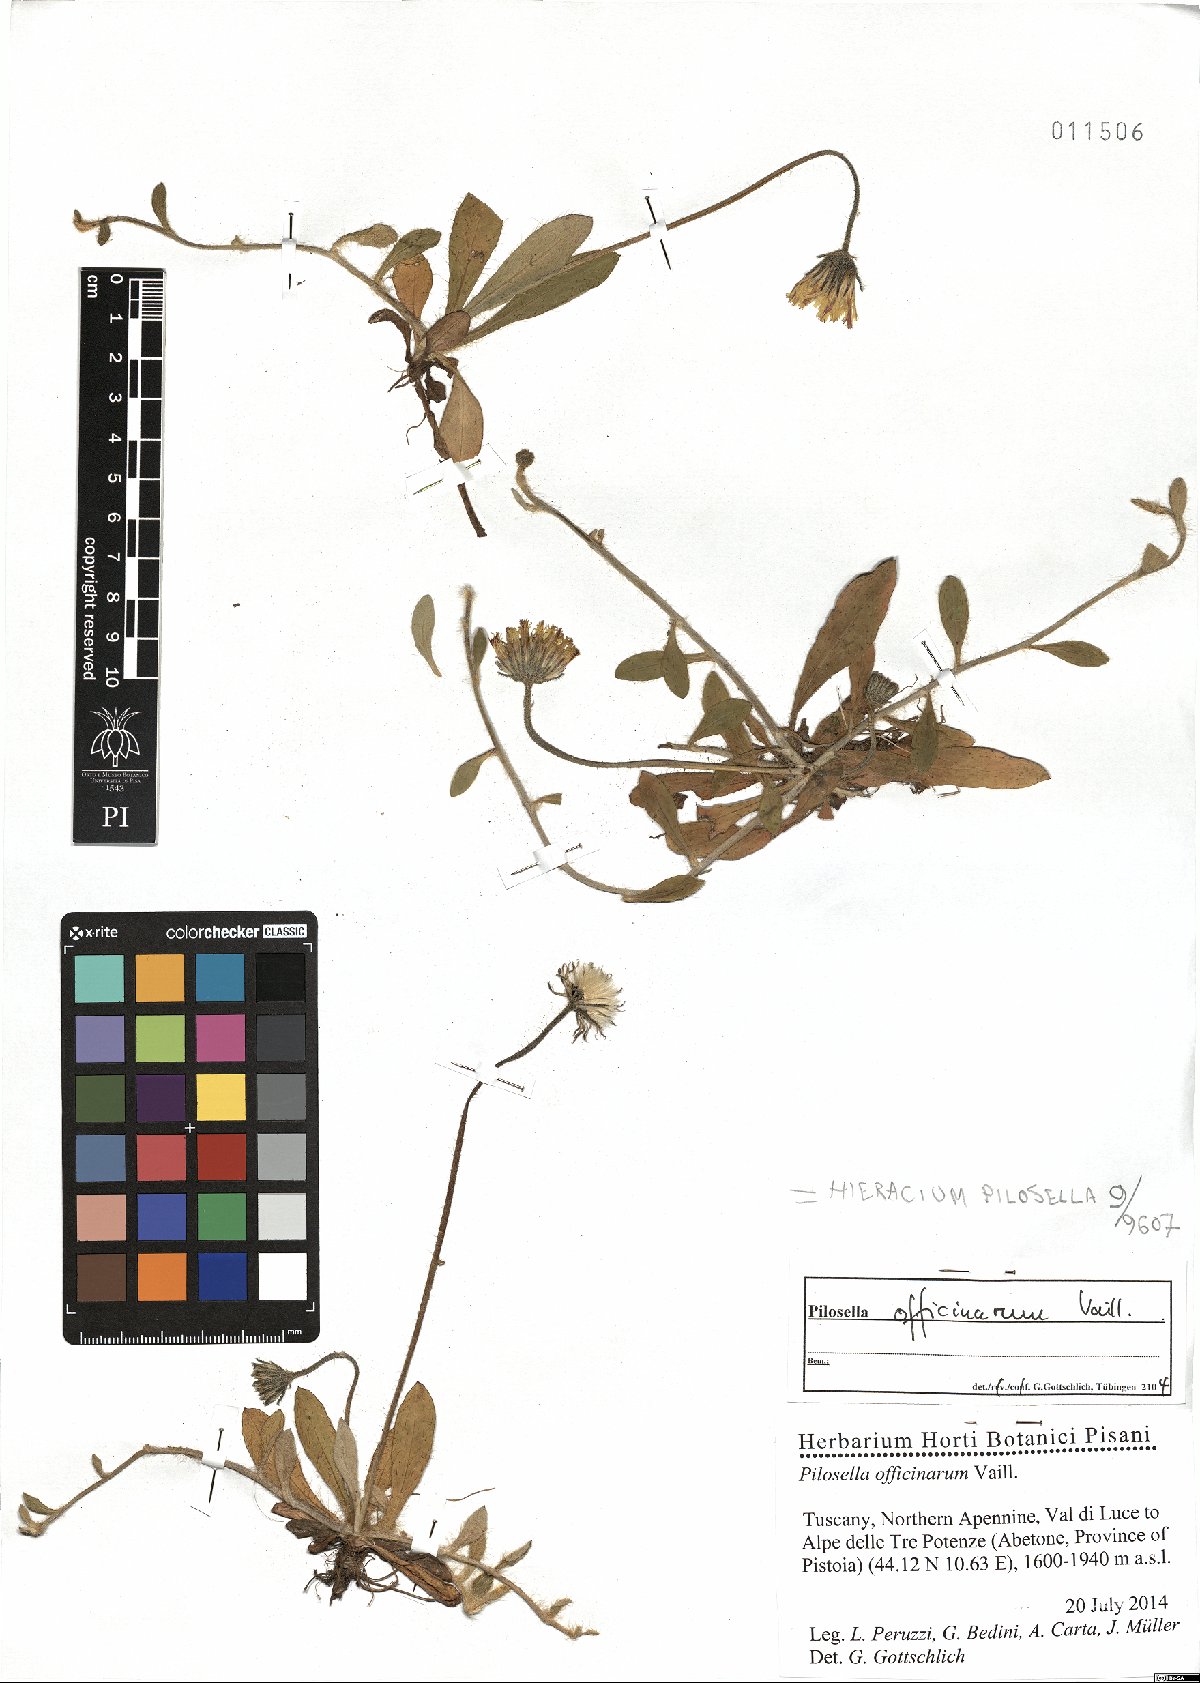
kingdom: Plantae
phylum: Tracheophyta
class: Magnoliopsida
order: Asterales
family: Asteraceae
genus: Pilosella
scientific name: Pilosella officinarum
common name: Mouse-ear hawkweed
